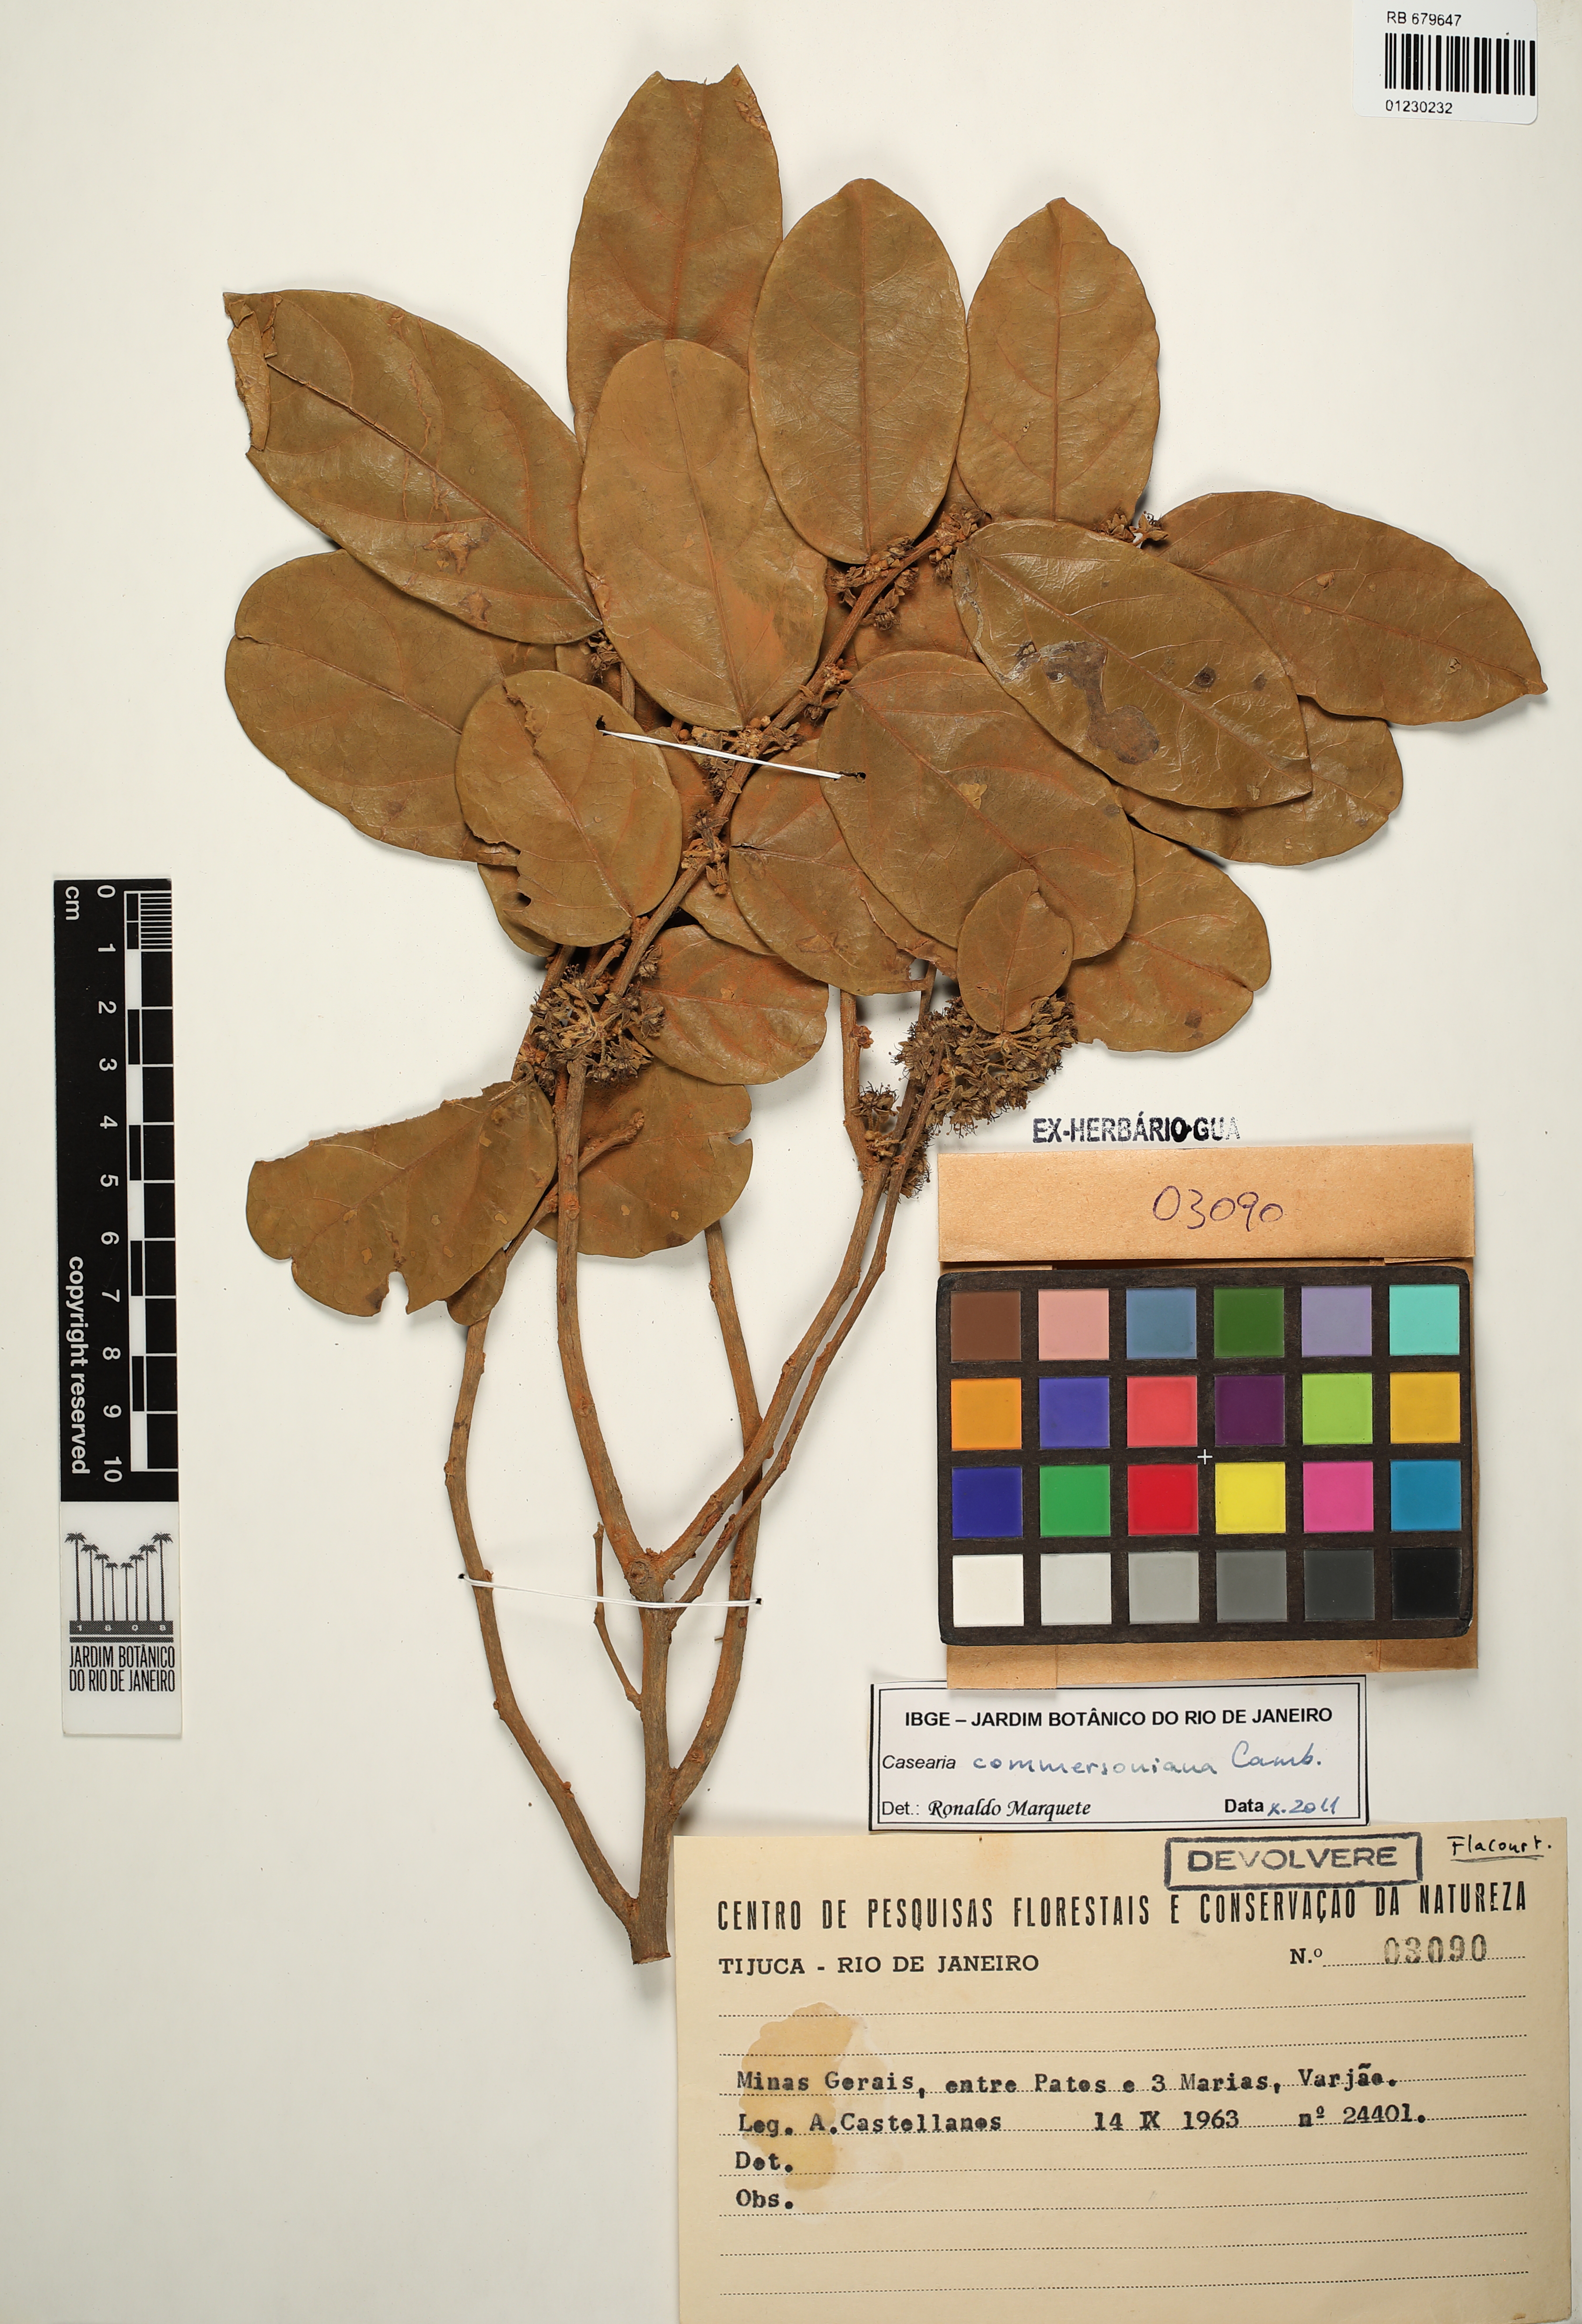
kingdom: Plantae
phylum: Tracheophyta
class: Magnoliopsida
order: Malpighiales
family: Salicaceae
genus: Piparea
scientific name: Piparea dentata
